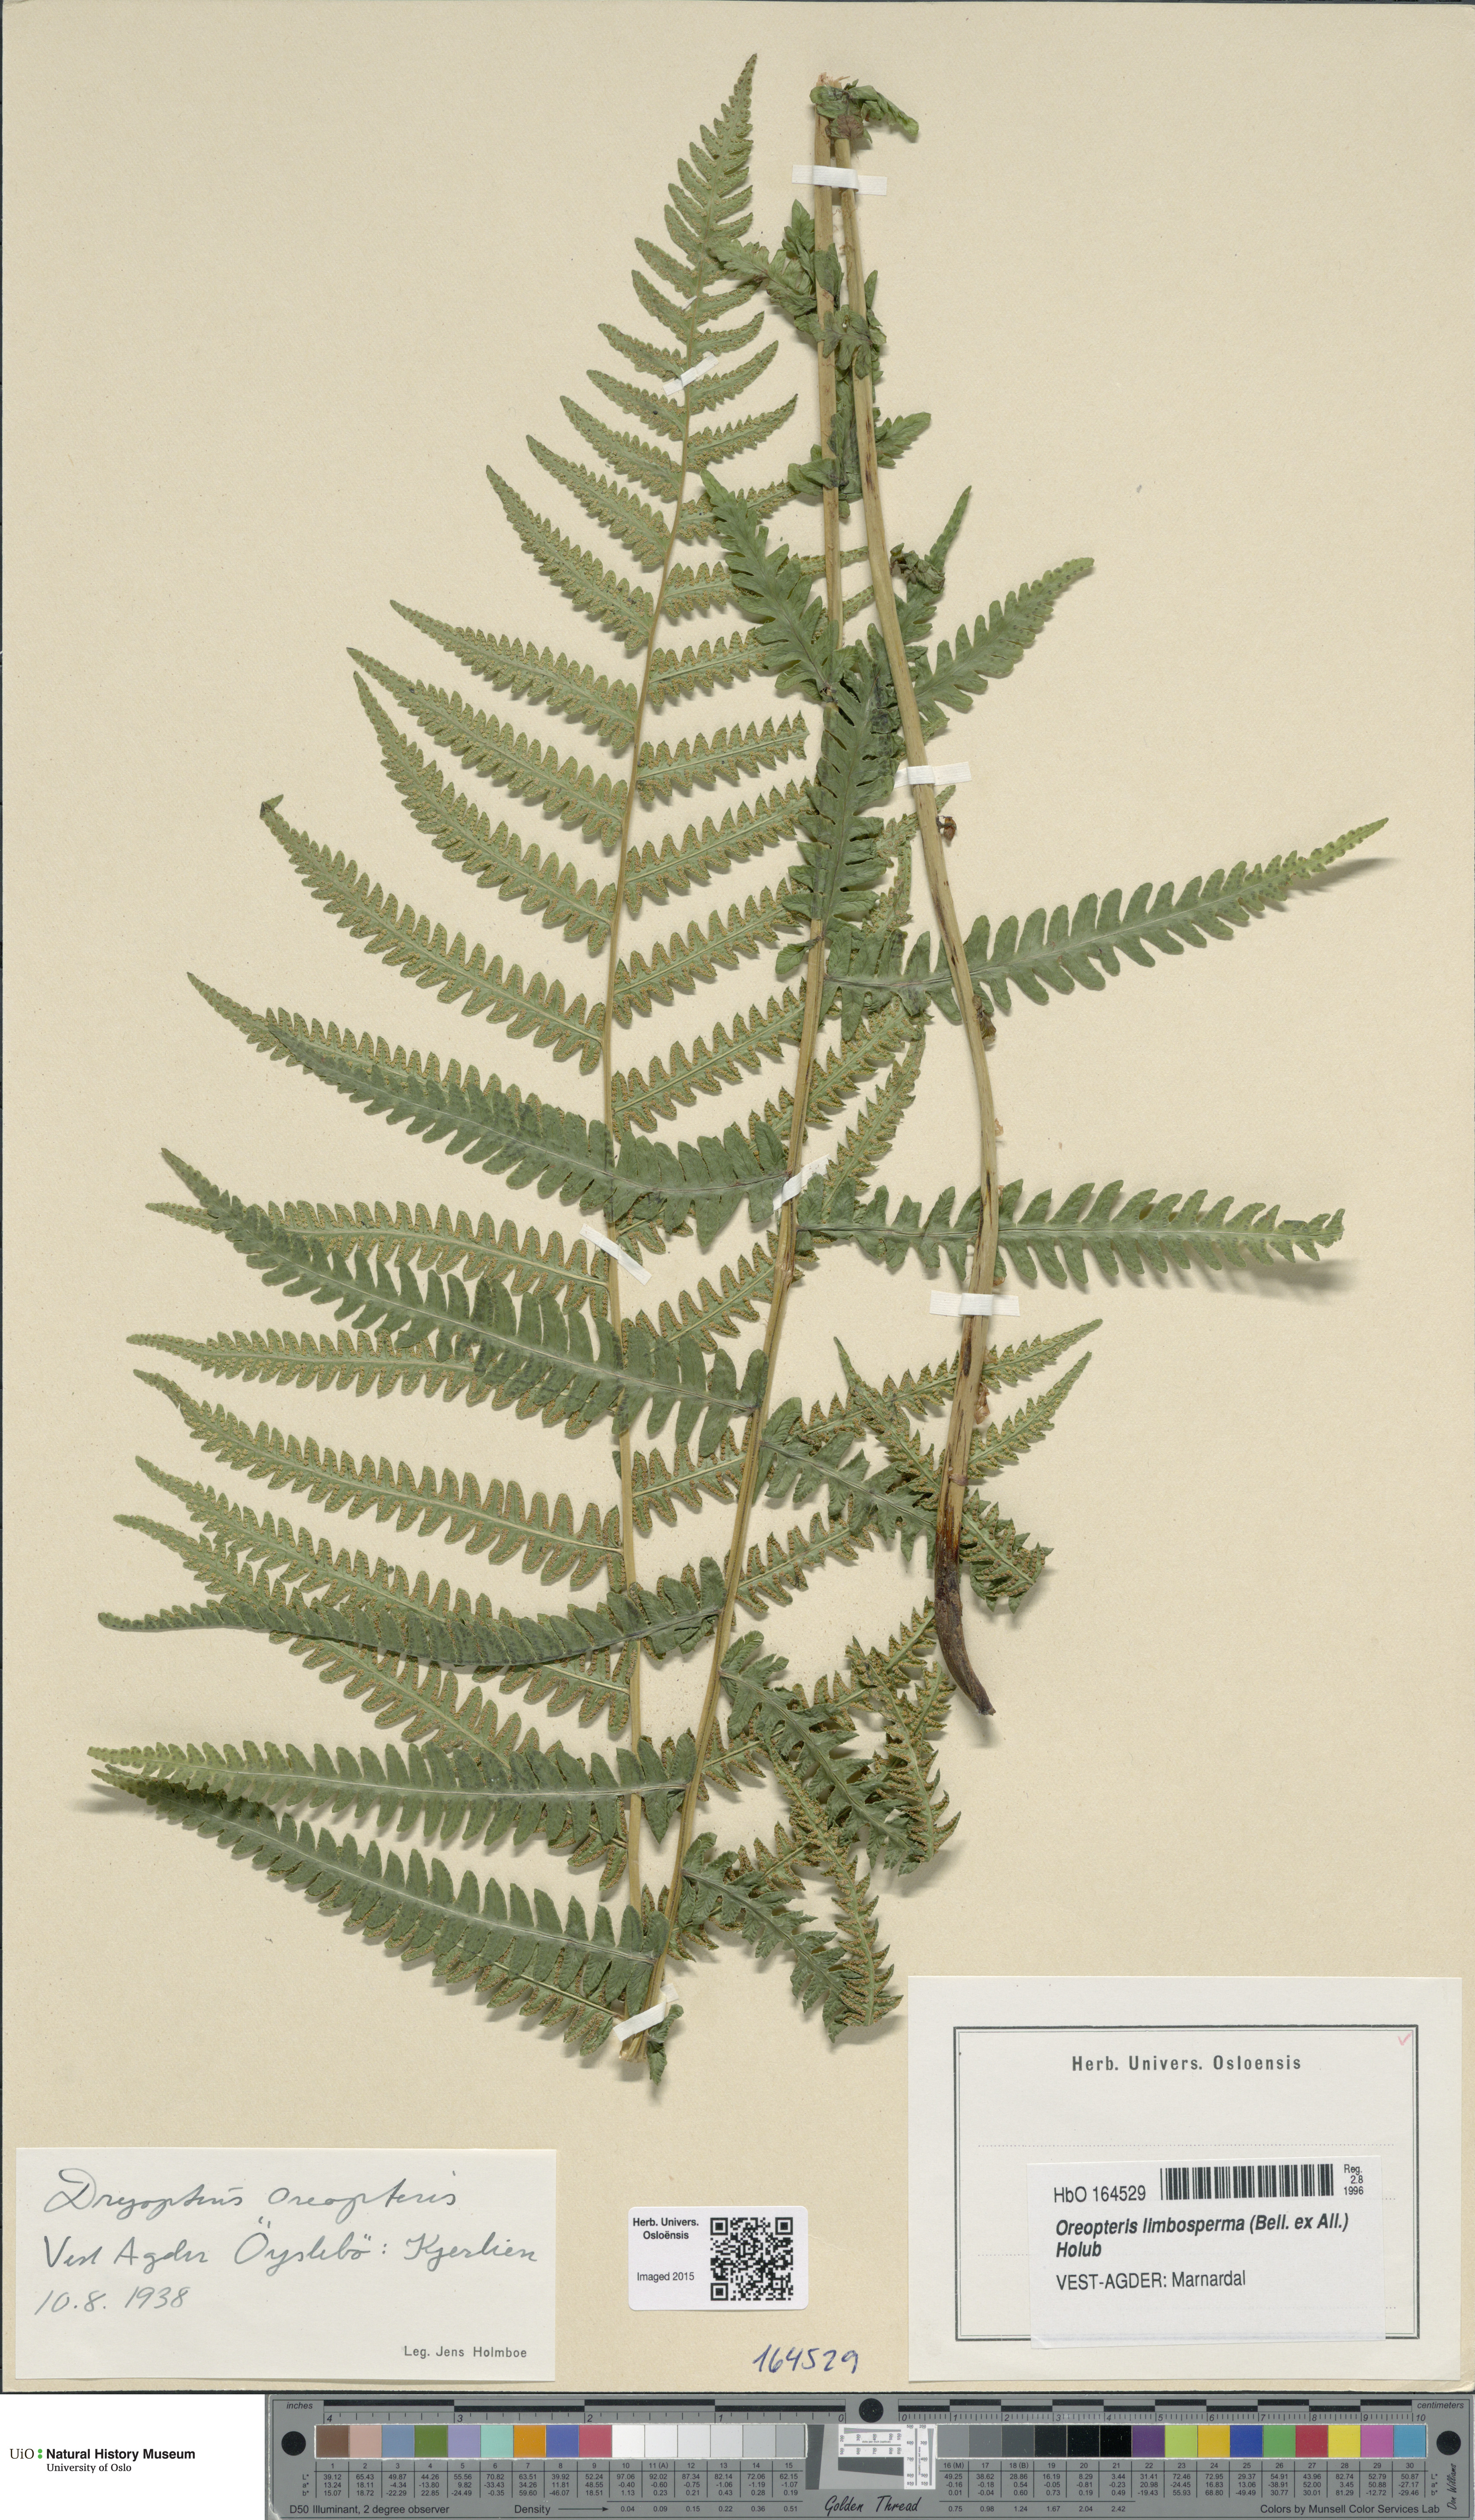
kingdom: Plantae
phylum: Tracheophyta
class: Polypodiopsida
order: Polypodiales
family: Thelypteridaceae
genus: Oreopteris
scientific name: Oreopteris limbosperma
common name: Lemon-scented fern
